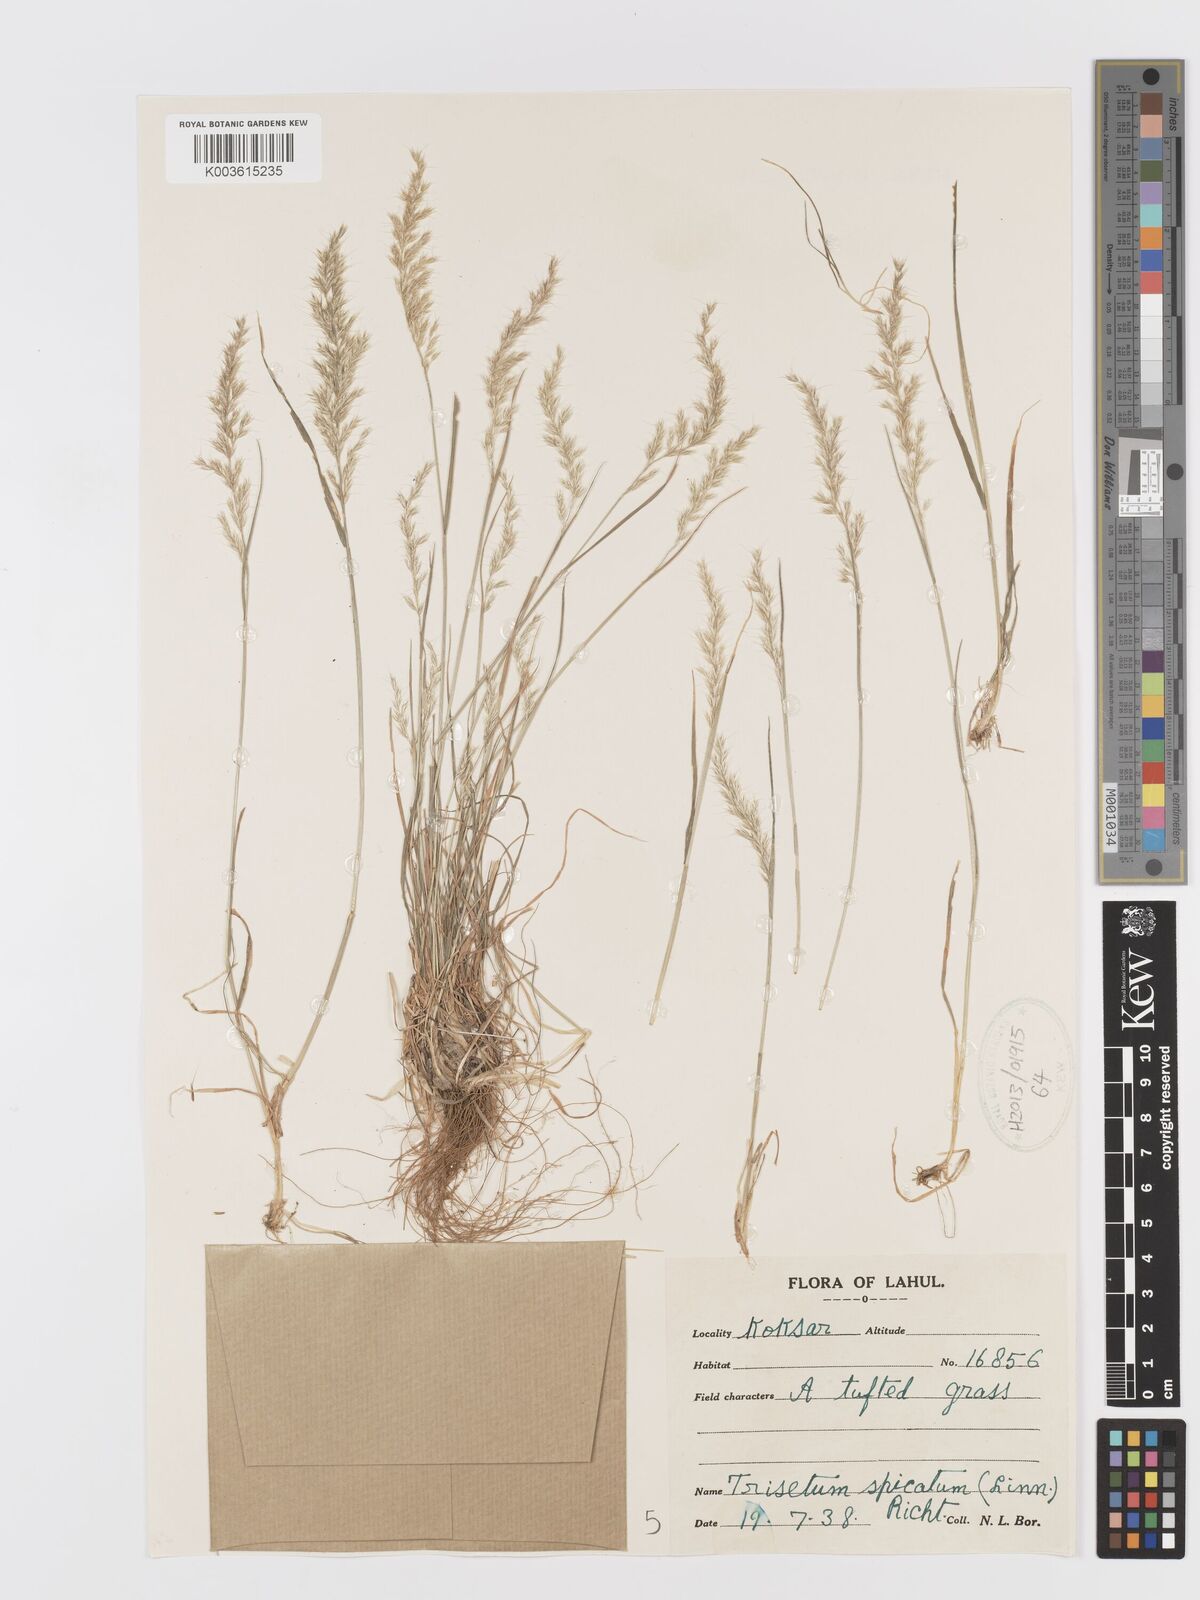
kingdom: Plantae
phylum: Tracheophyta
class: Liliopsida
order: Poales
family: Poaceae
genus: Koeleria
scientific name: Koeleria spicata
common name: Mountain trisetum
